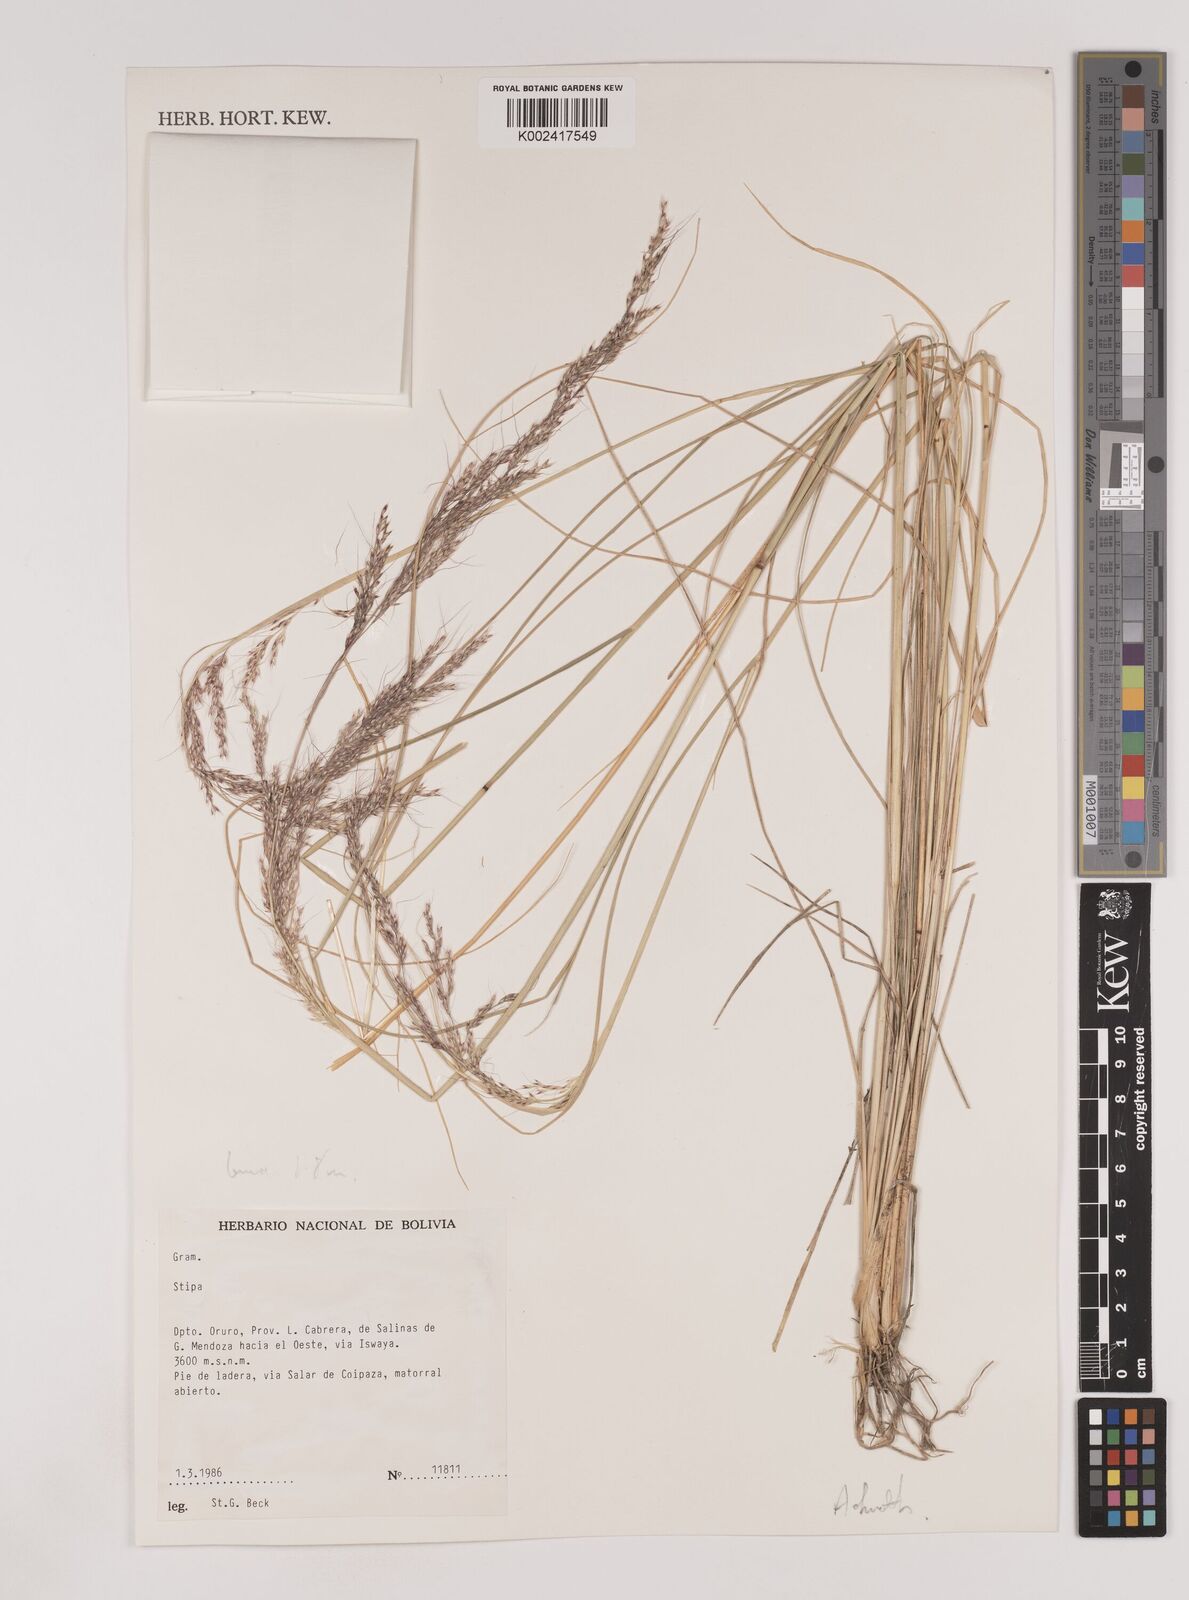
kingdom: Plantae
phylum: Tracheophyta
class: Liliopsida
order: Poales
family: Poaceae
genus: Nassella
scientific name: Nassella pubiflora
